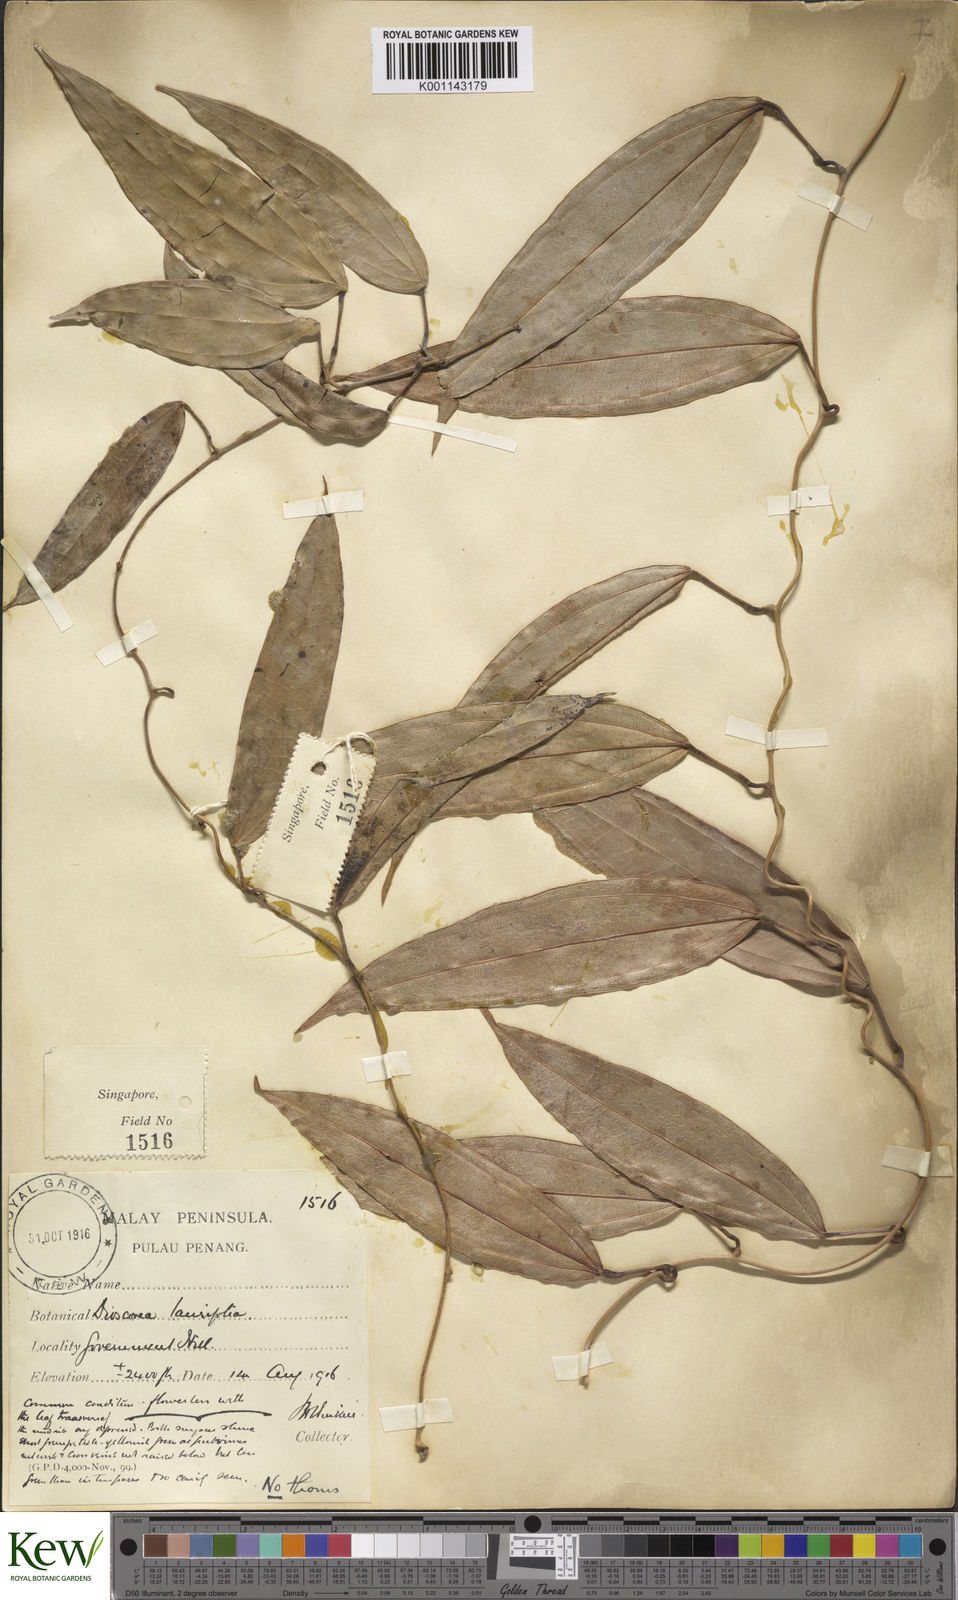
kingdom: Plantae
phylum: Tracheophyta
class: Liliopsida
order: Dioscoreales
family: Dioscoreaceae
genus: Dioscorea
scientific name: Dioscorea laurifolia
